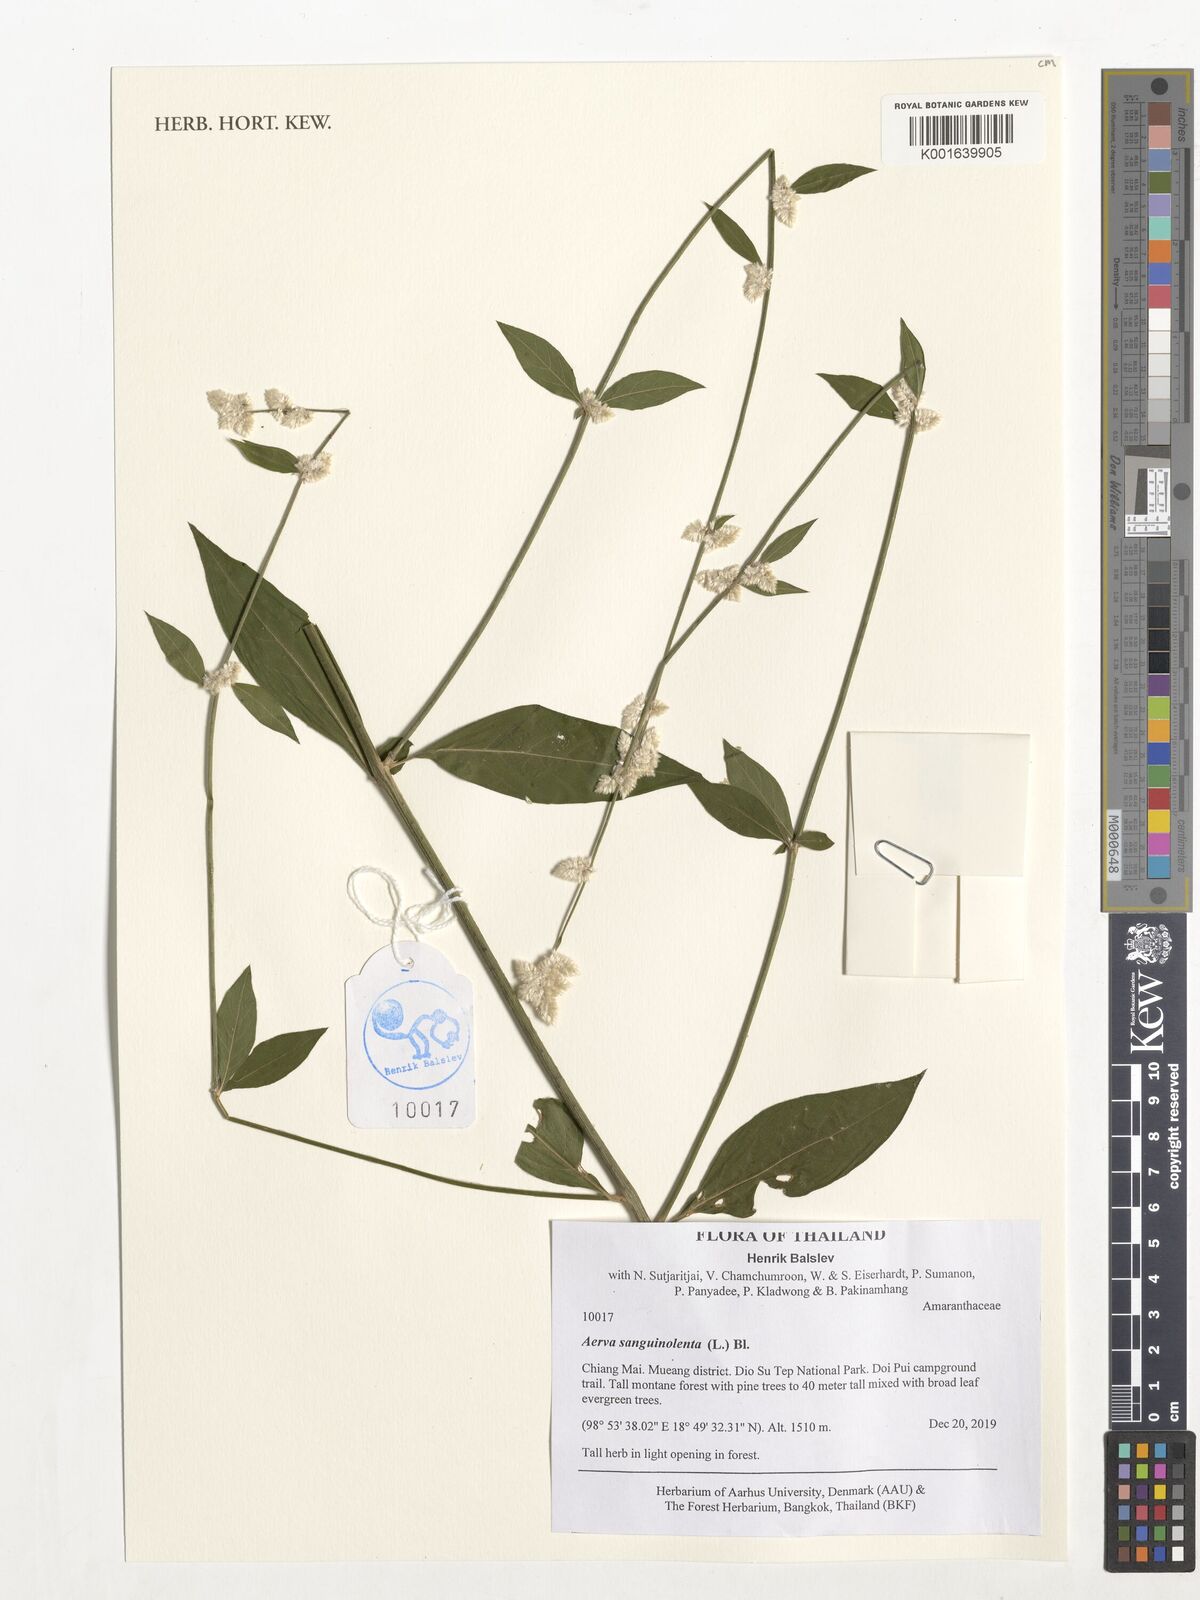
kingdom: Plantae
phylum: Tracheophyta
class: Magnoliopsida
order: Caryophyllales
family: Amaranthaceae
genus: Ouret
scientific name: Ouret sanguinolenta
